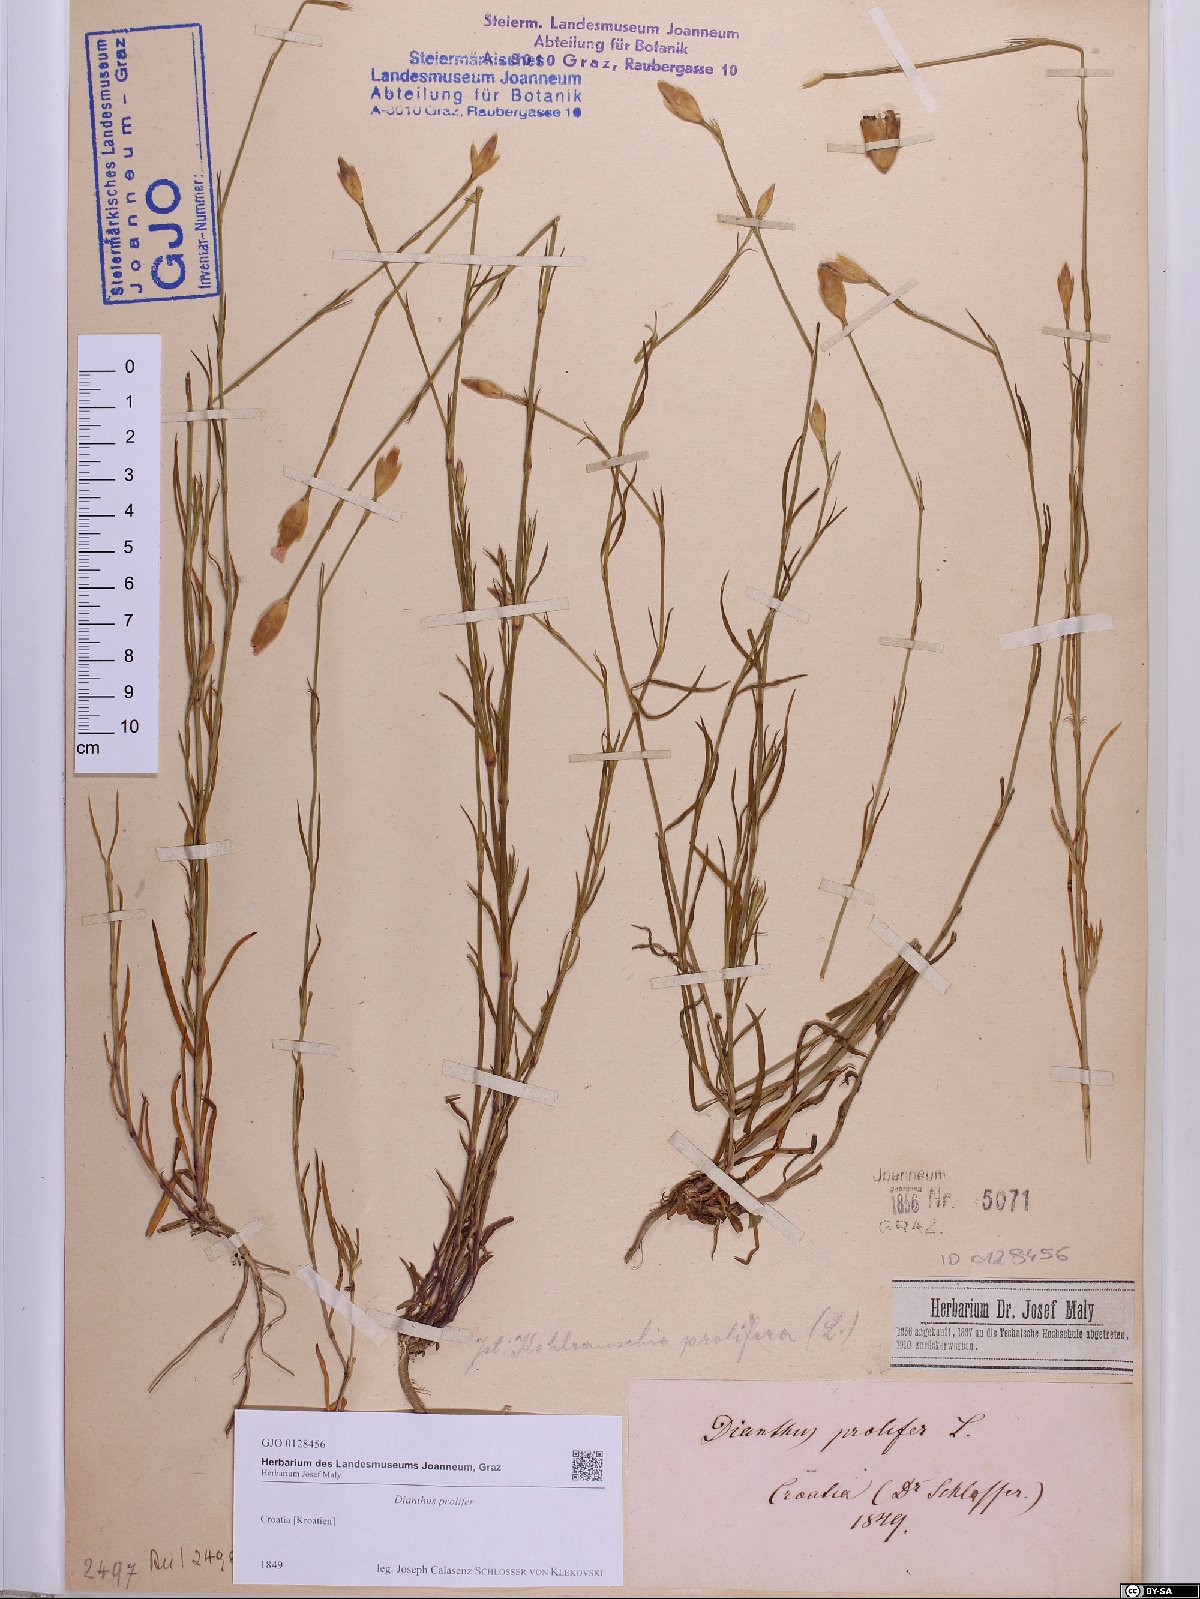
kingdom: Plantae
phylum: Tracheophyta
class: Magnoliopsida
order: Caryophyllales
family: Caryophyllaceae
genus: Petrorhagia
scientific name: Petrorhagia prolifera
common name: Proliferous pink
